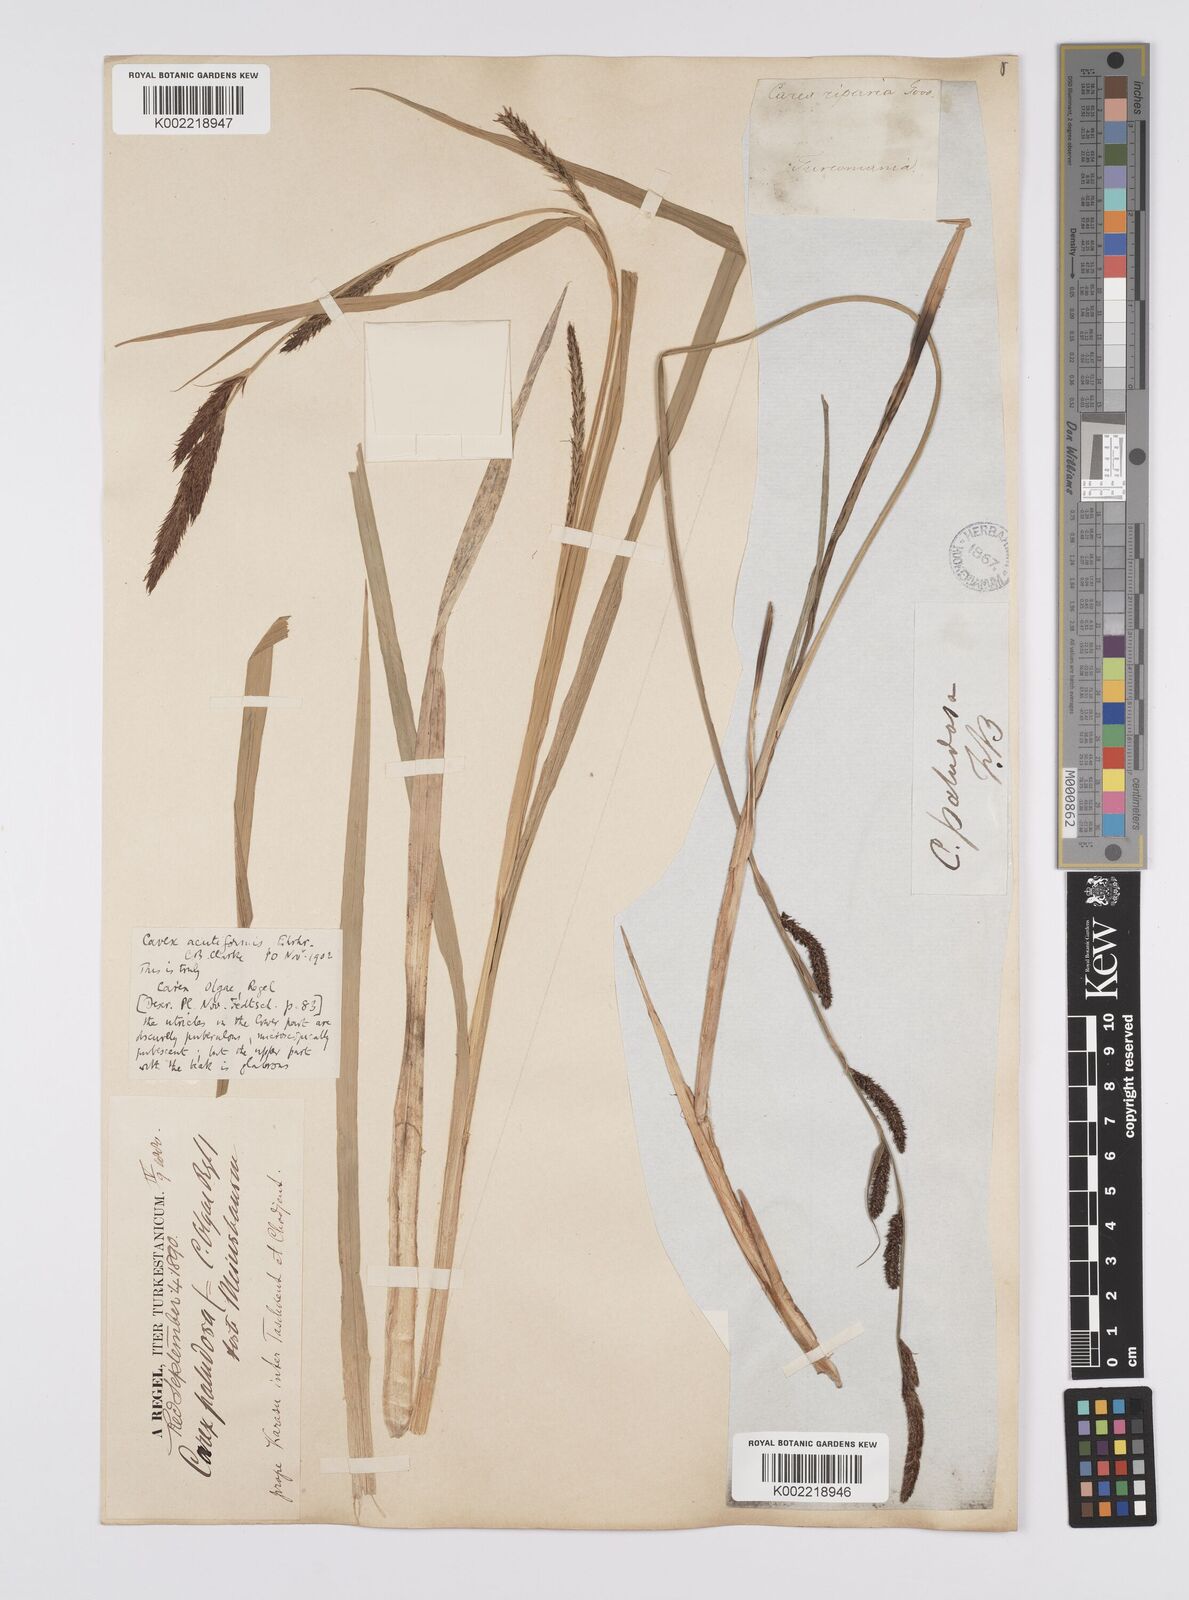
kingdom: Plantae
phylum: Tracheophyta
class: Liliopsida
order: Poales
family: Cyperaceae
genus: Carex
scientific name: Carex acutiformis
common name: Lesser pond-sedge
